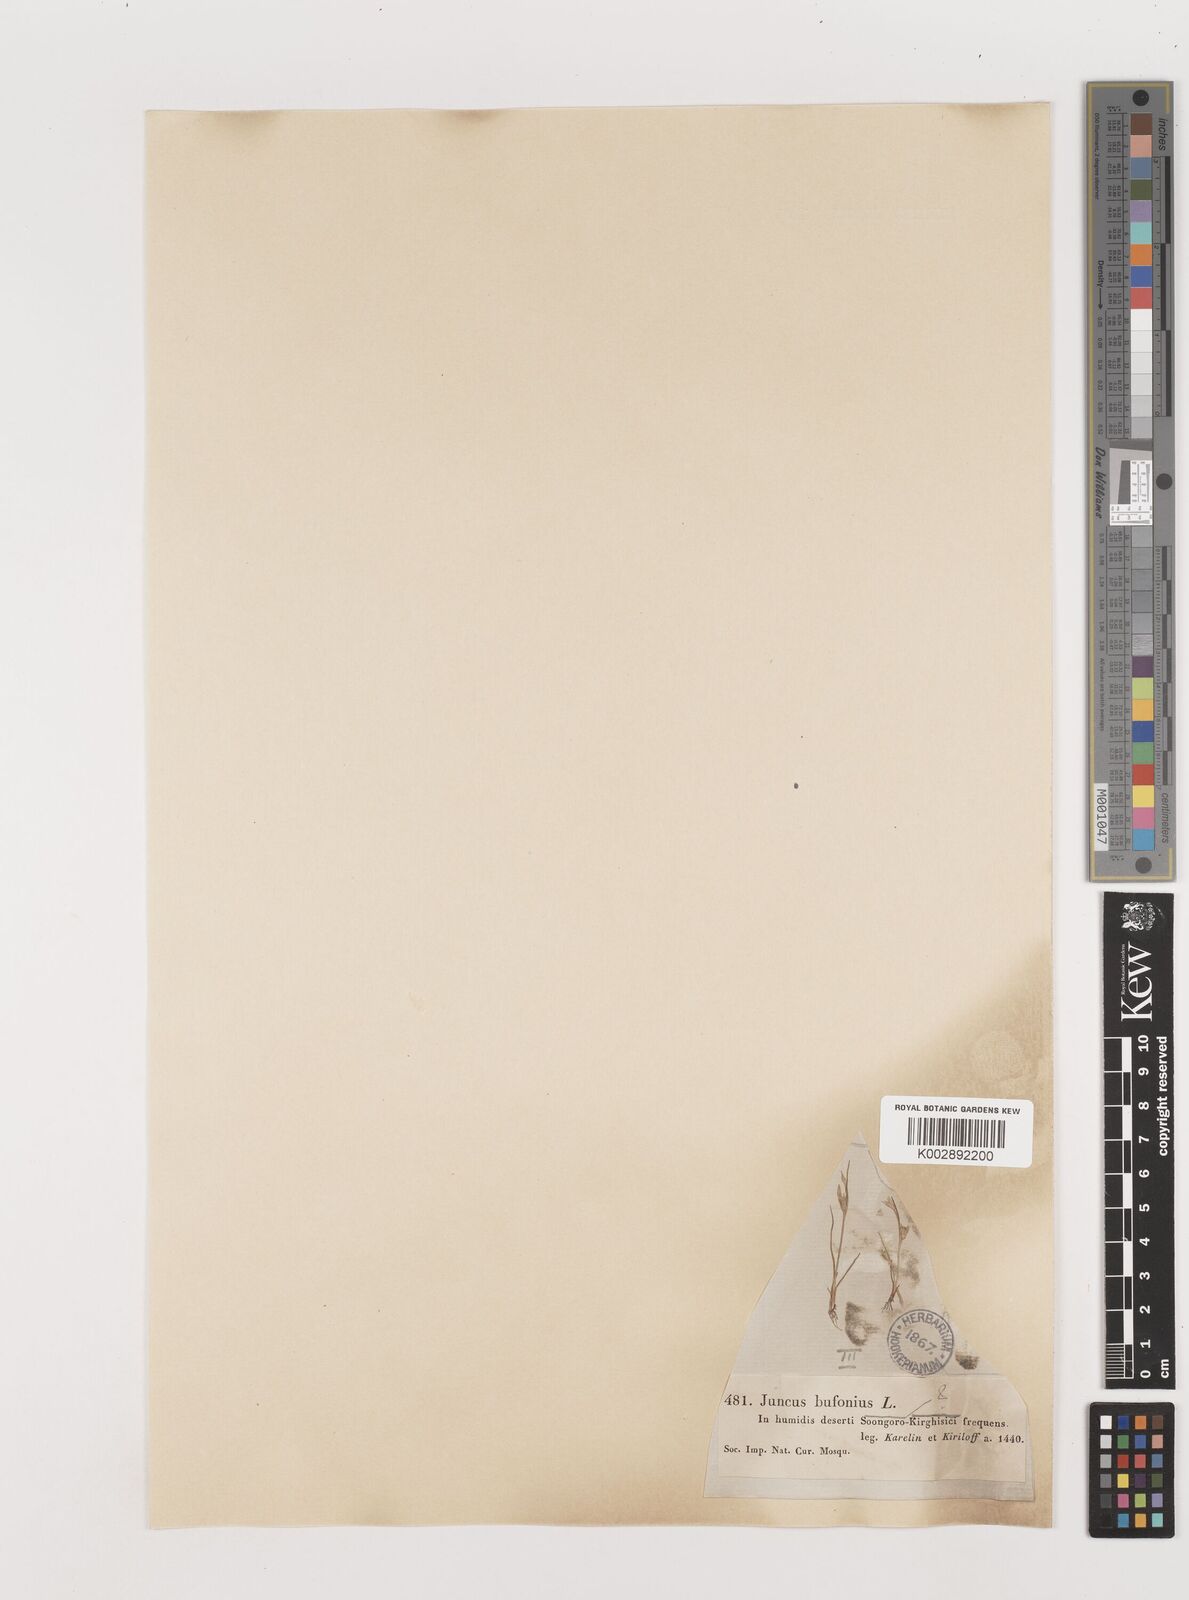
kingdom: Plantae
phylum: Tracheophyta
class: Liliopsida
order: Poales
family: Juncaceae
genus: Juncus
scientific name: Juncus bufonius
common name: Toad rush
